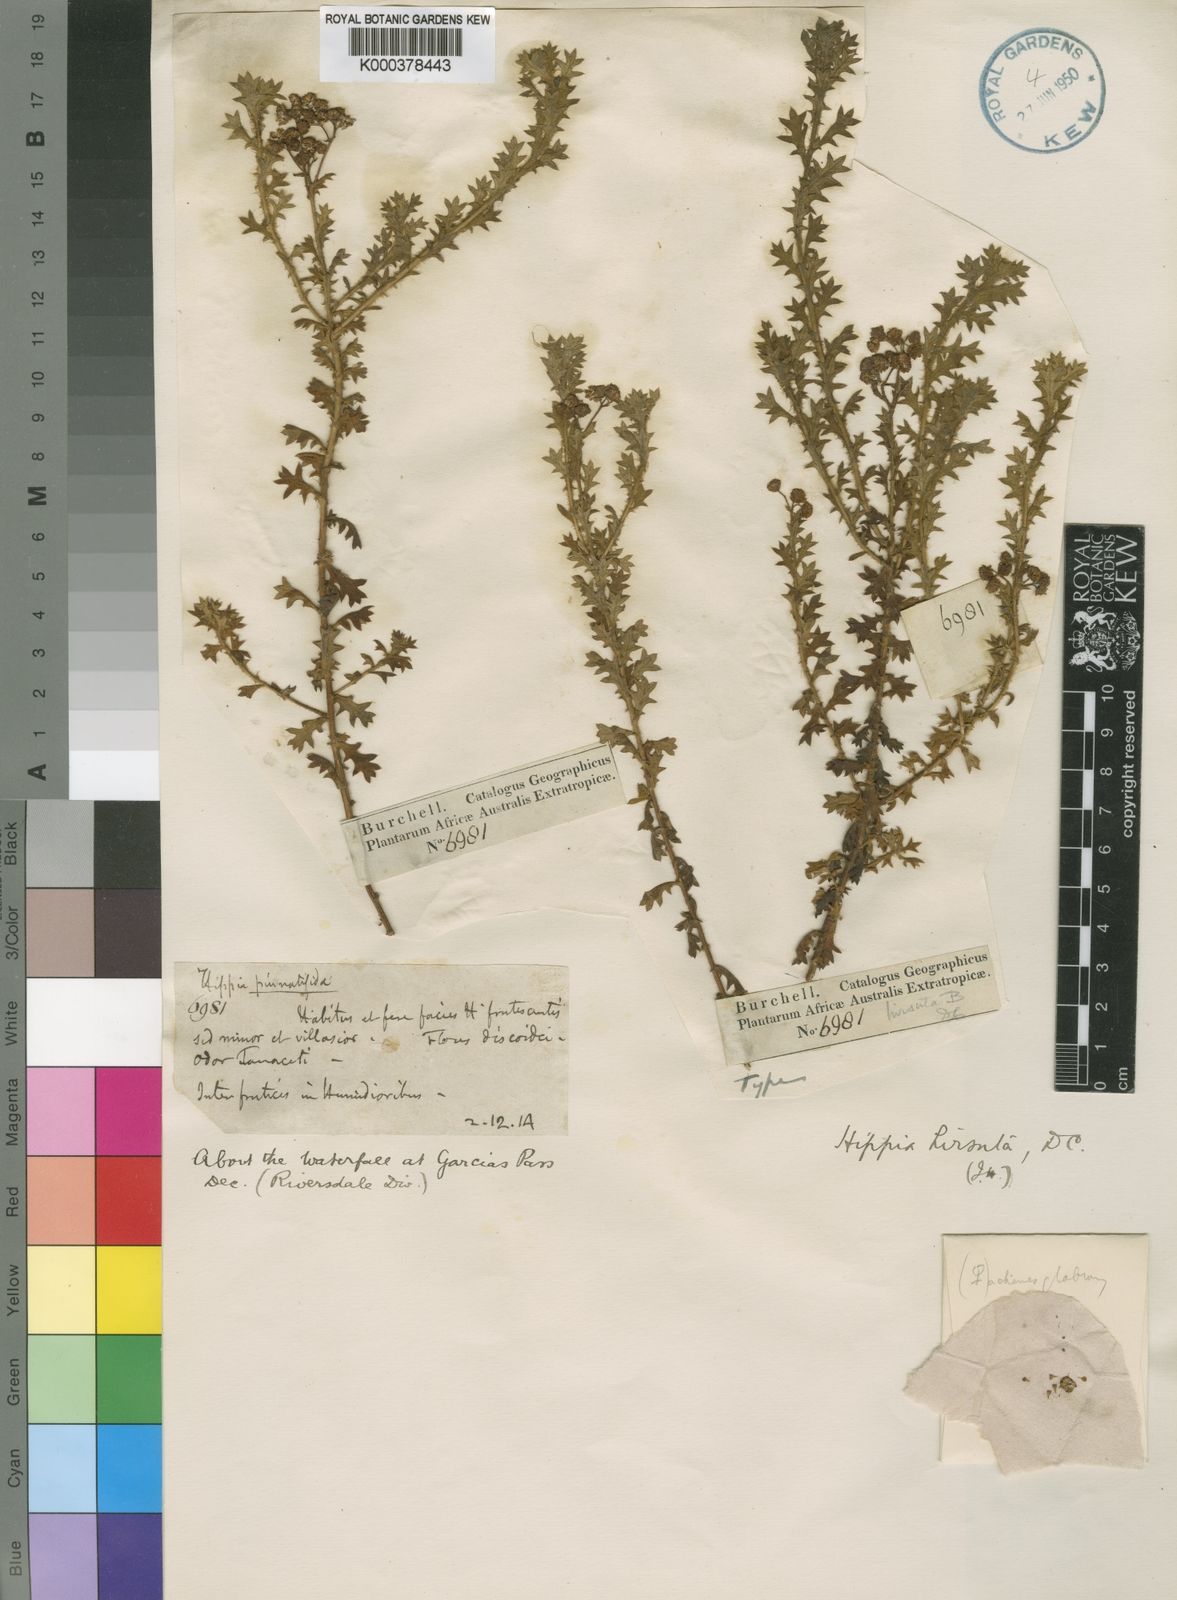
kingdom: Plantae
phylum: Tracheophyta
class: Magnoliopsida
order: Asterales
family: Asteraceae
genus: Hippia
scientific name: Hippia hirsuta
